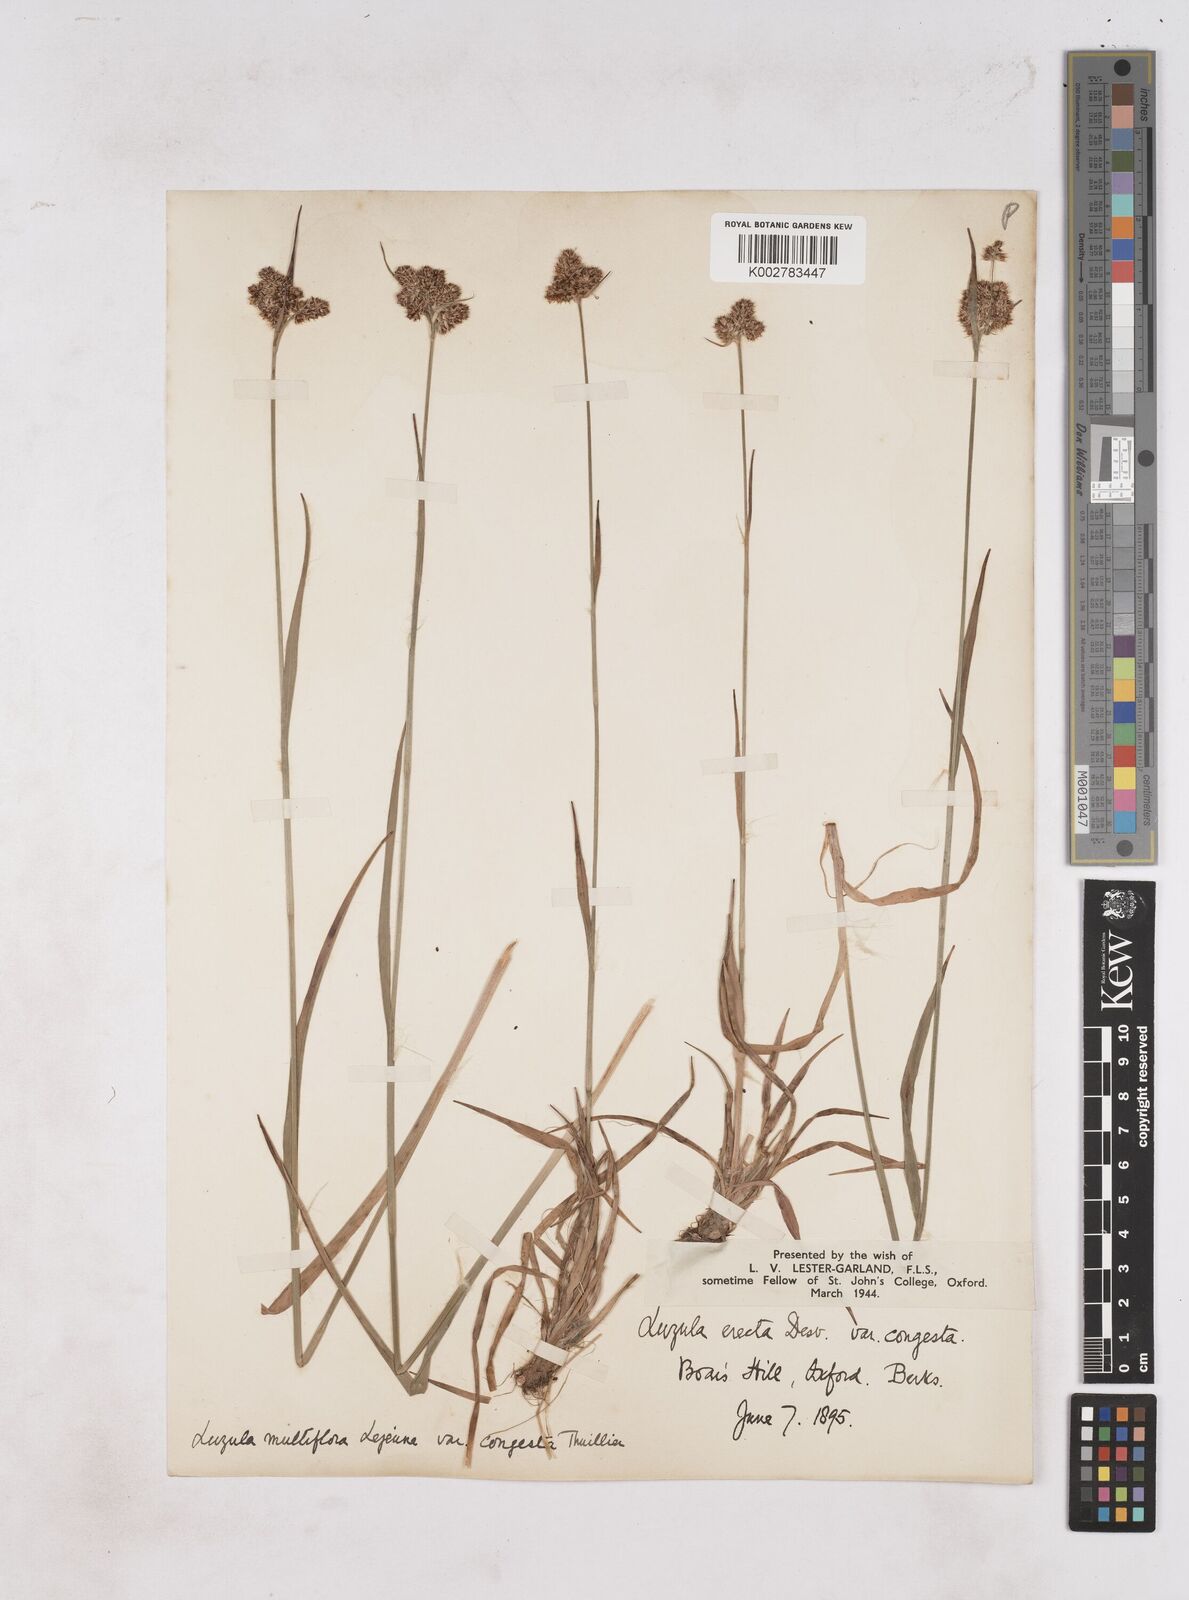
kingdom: Plantae
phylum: Tracheophyta
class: Liliopsida
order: Poales
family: Juncaceae
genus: Luzula
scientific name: Luzula campestris
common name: Field wood-rush
